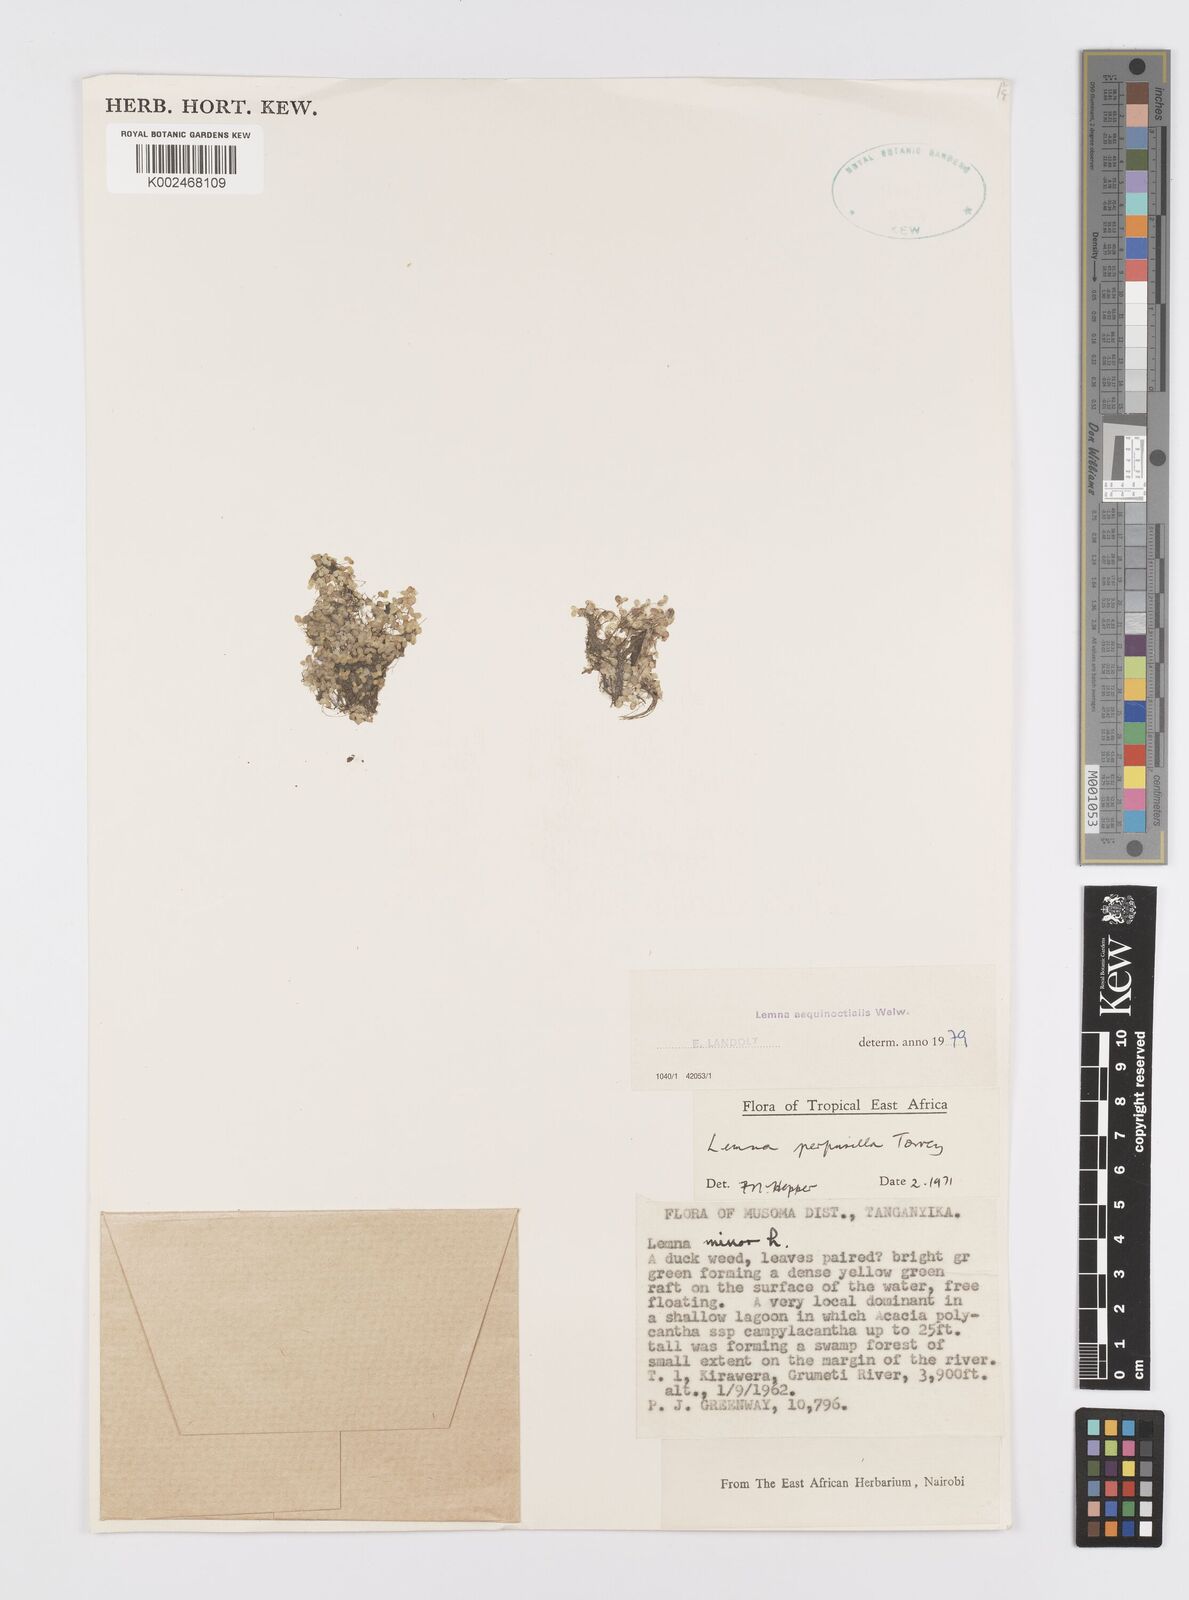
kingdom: Plantae
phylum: Tracheophyta
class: Liliopsida
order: Alismatales
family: Araceae
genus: Lemna
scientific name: Lemna aequinoctialis
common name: Duckweed
